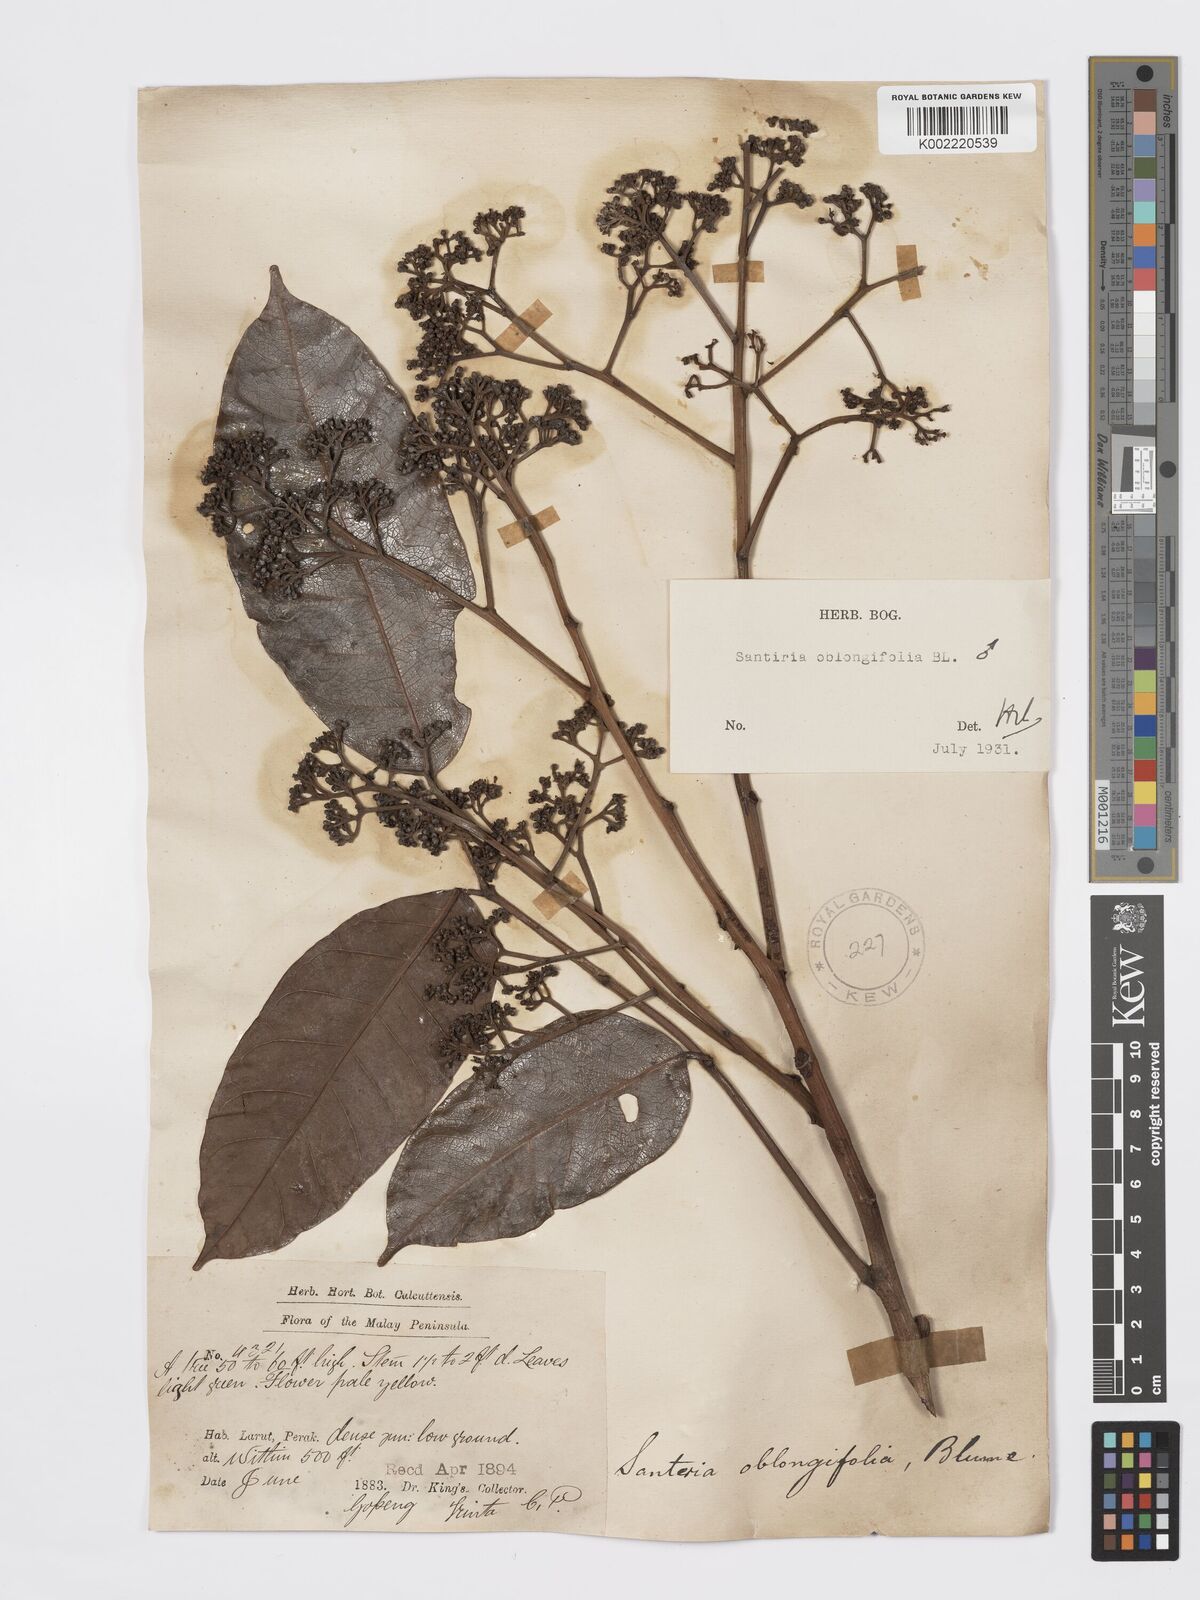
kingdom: Plantae
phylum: Tracheophyta
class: Magnoliopsida
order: Sapindales
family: Burseraceae
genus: Santiria
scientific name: Santiria oblongifolia
